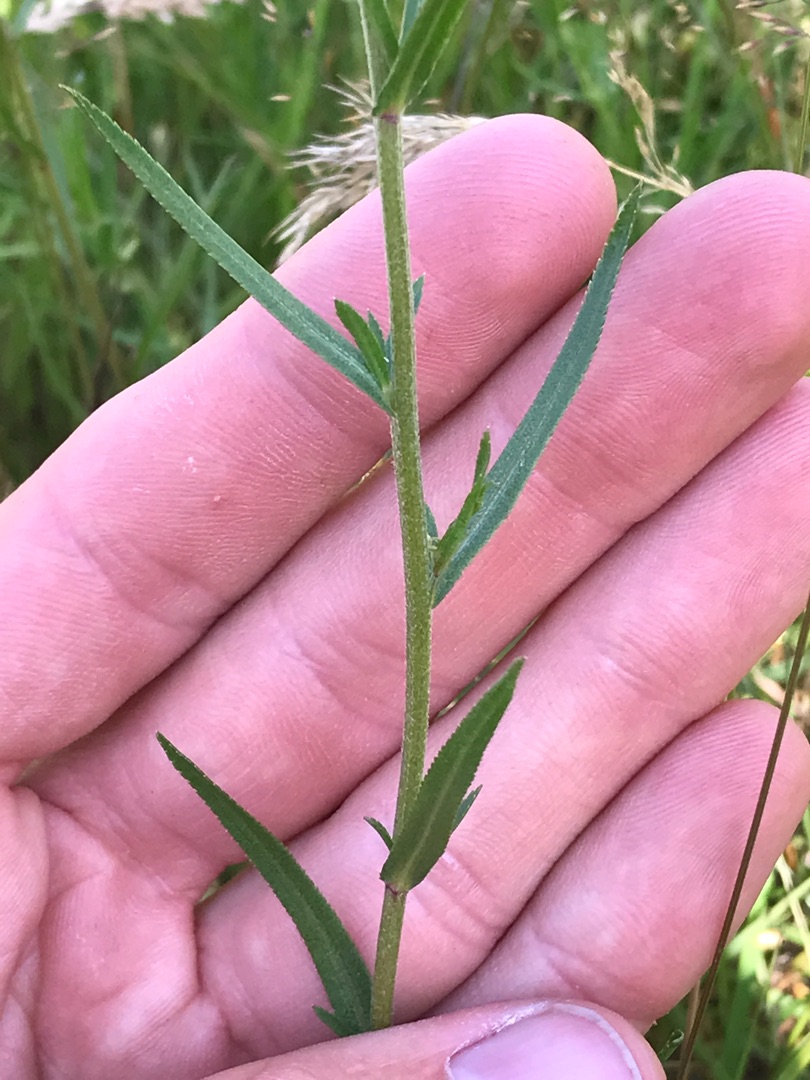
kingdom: Plantae
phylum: Tracheophyta
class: Magnoliopsida
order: Asterales
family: Asteraceae
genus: Achillea
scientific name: Achillea ptarmica
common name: Nyse-røllike
